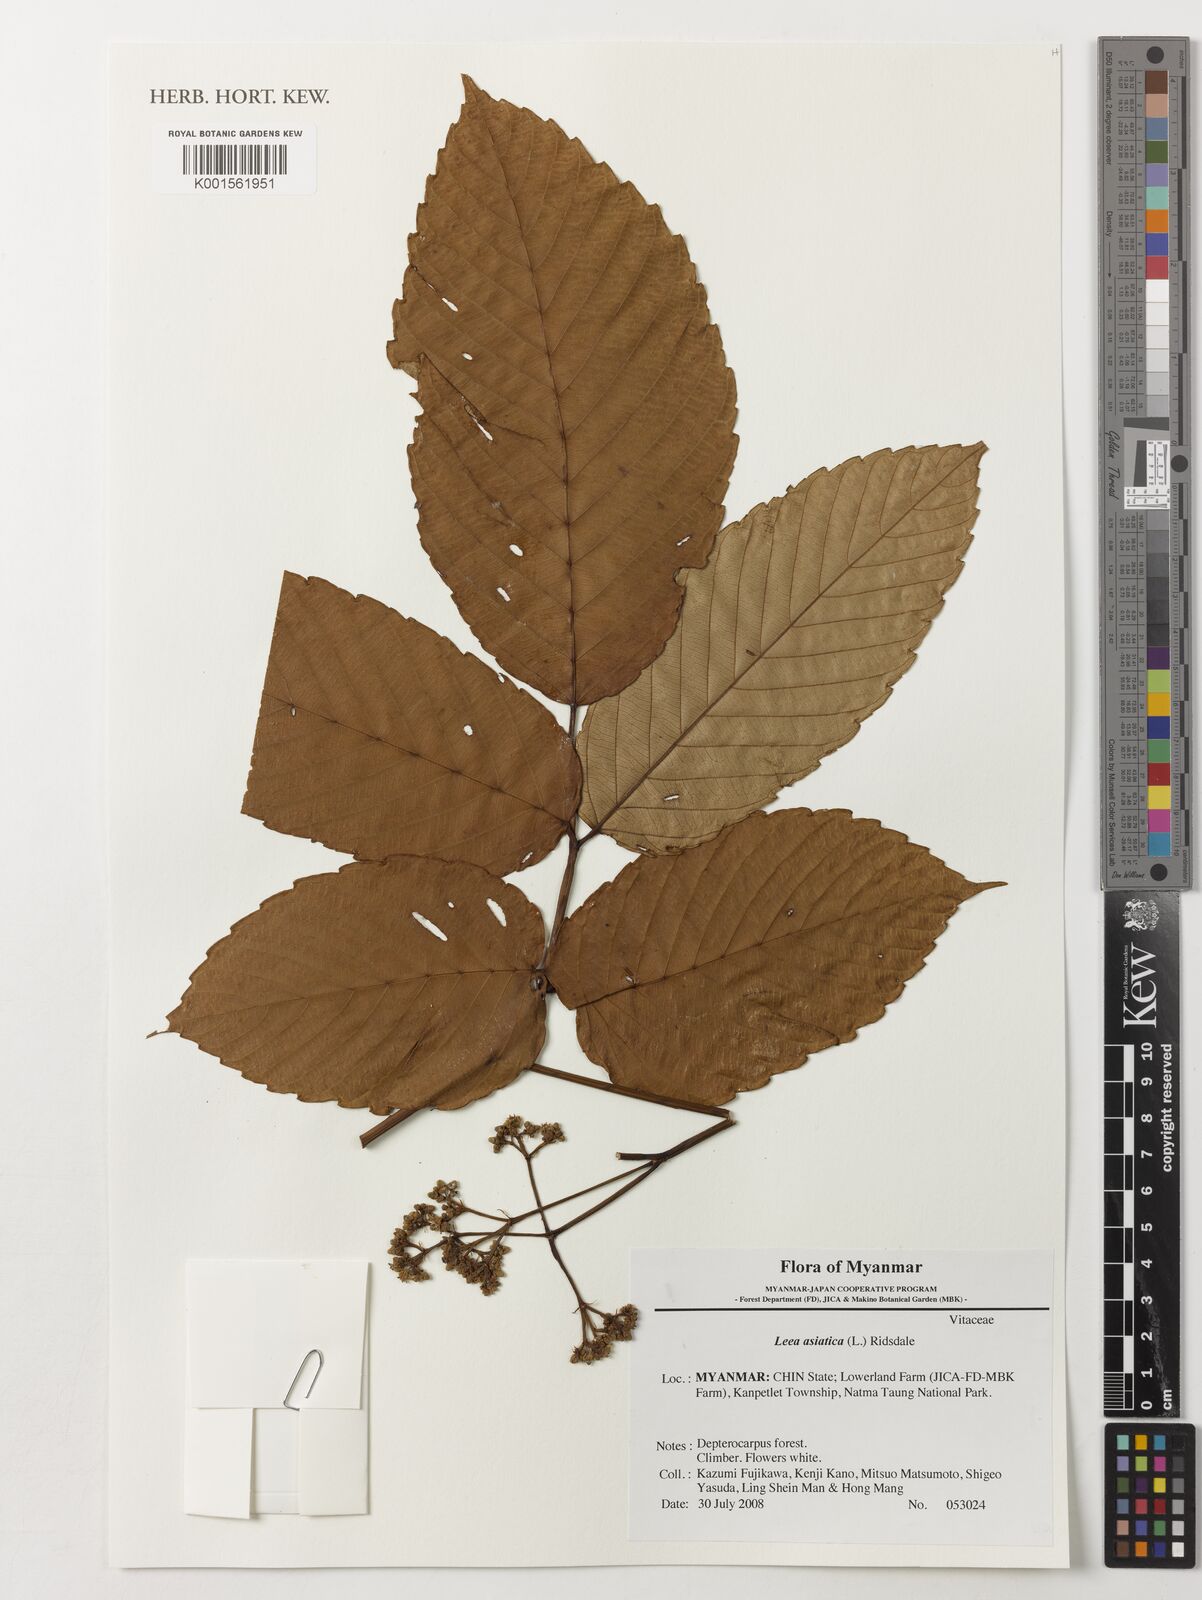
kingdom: Plantae
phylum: Tracheophyta
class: Magnoliopsida
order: Vitales
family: Vitaceae
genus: Leea
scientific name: Leea asiatica
